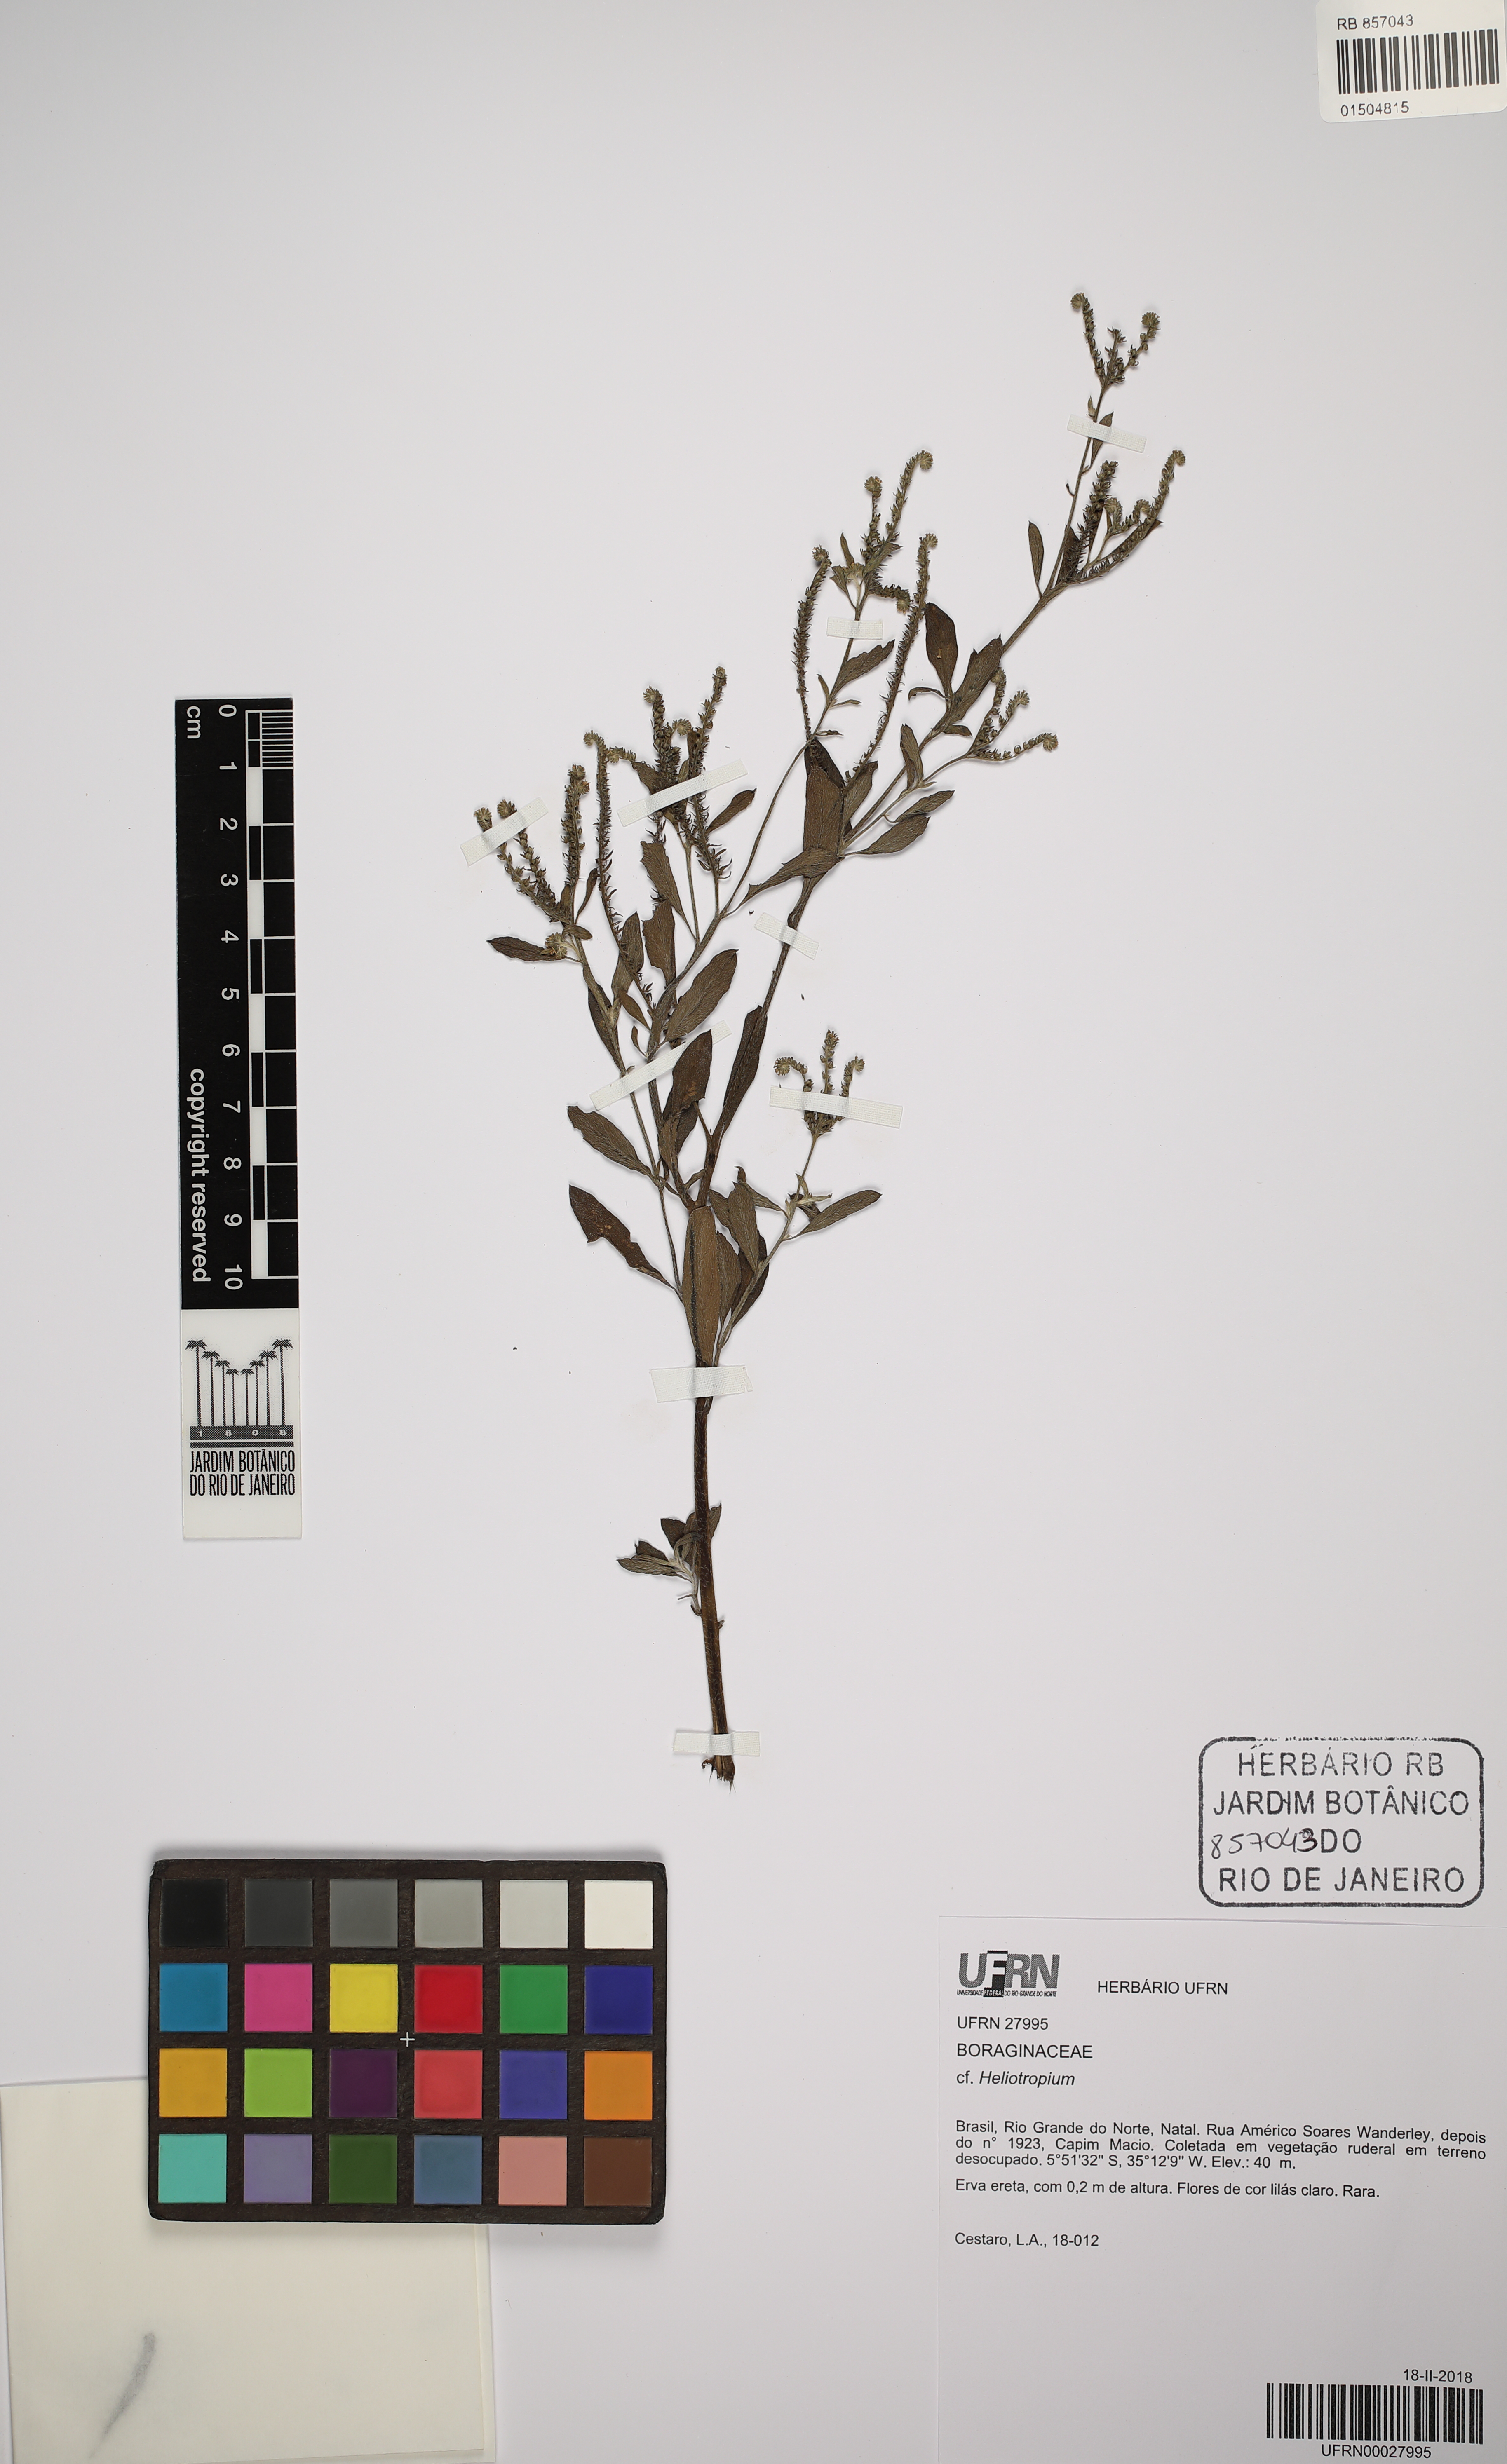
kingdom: Plantae
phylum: Tracheophyta
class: Magnoliopsida
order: Boraginales
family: Heliotropiaceae
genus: Heliotropium
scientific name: Heliotropium
